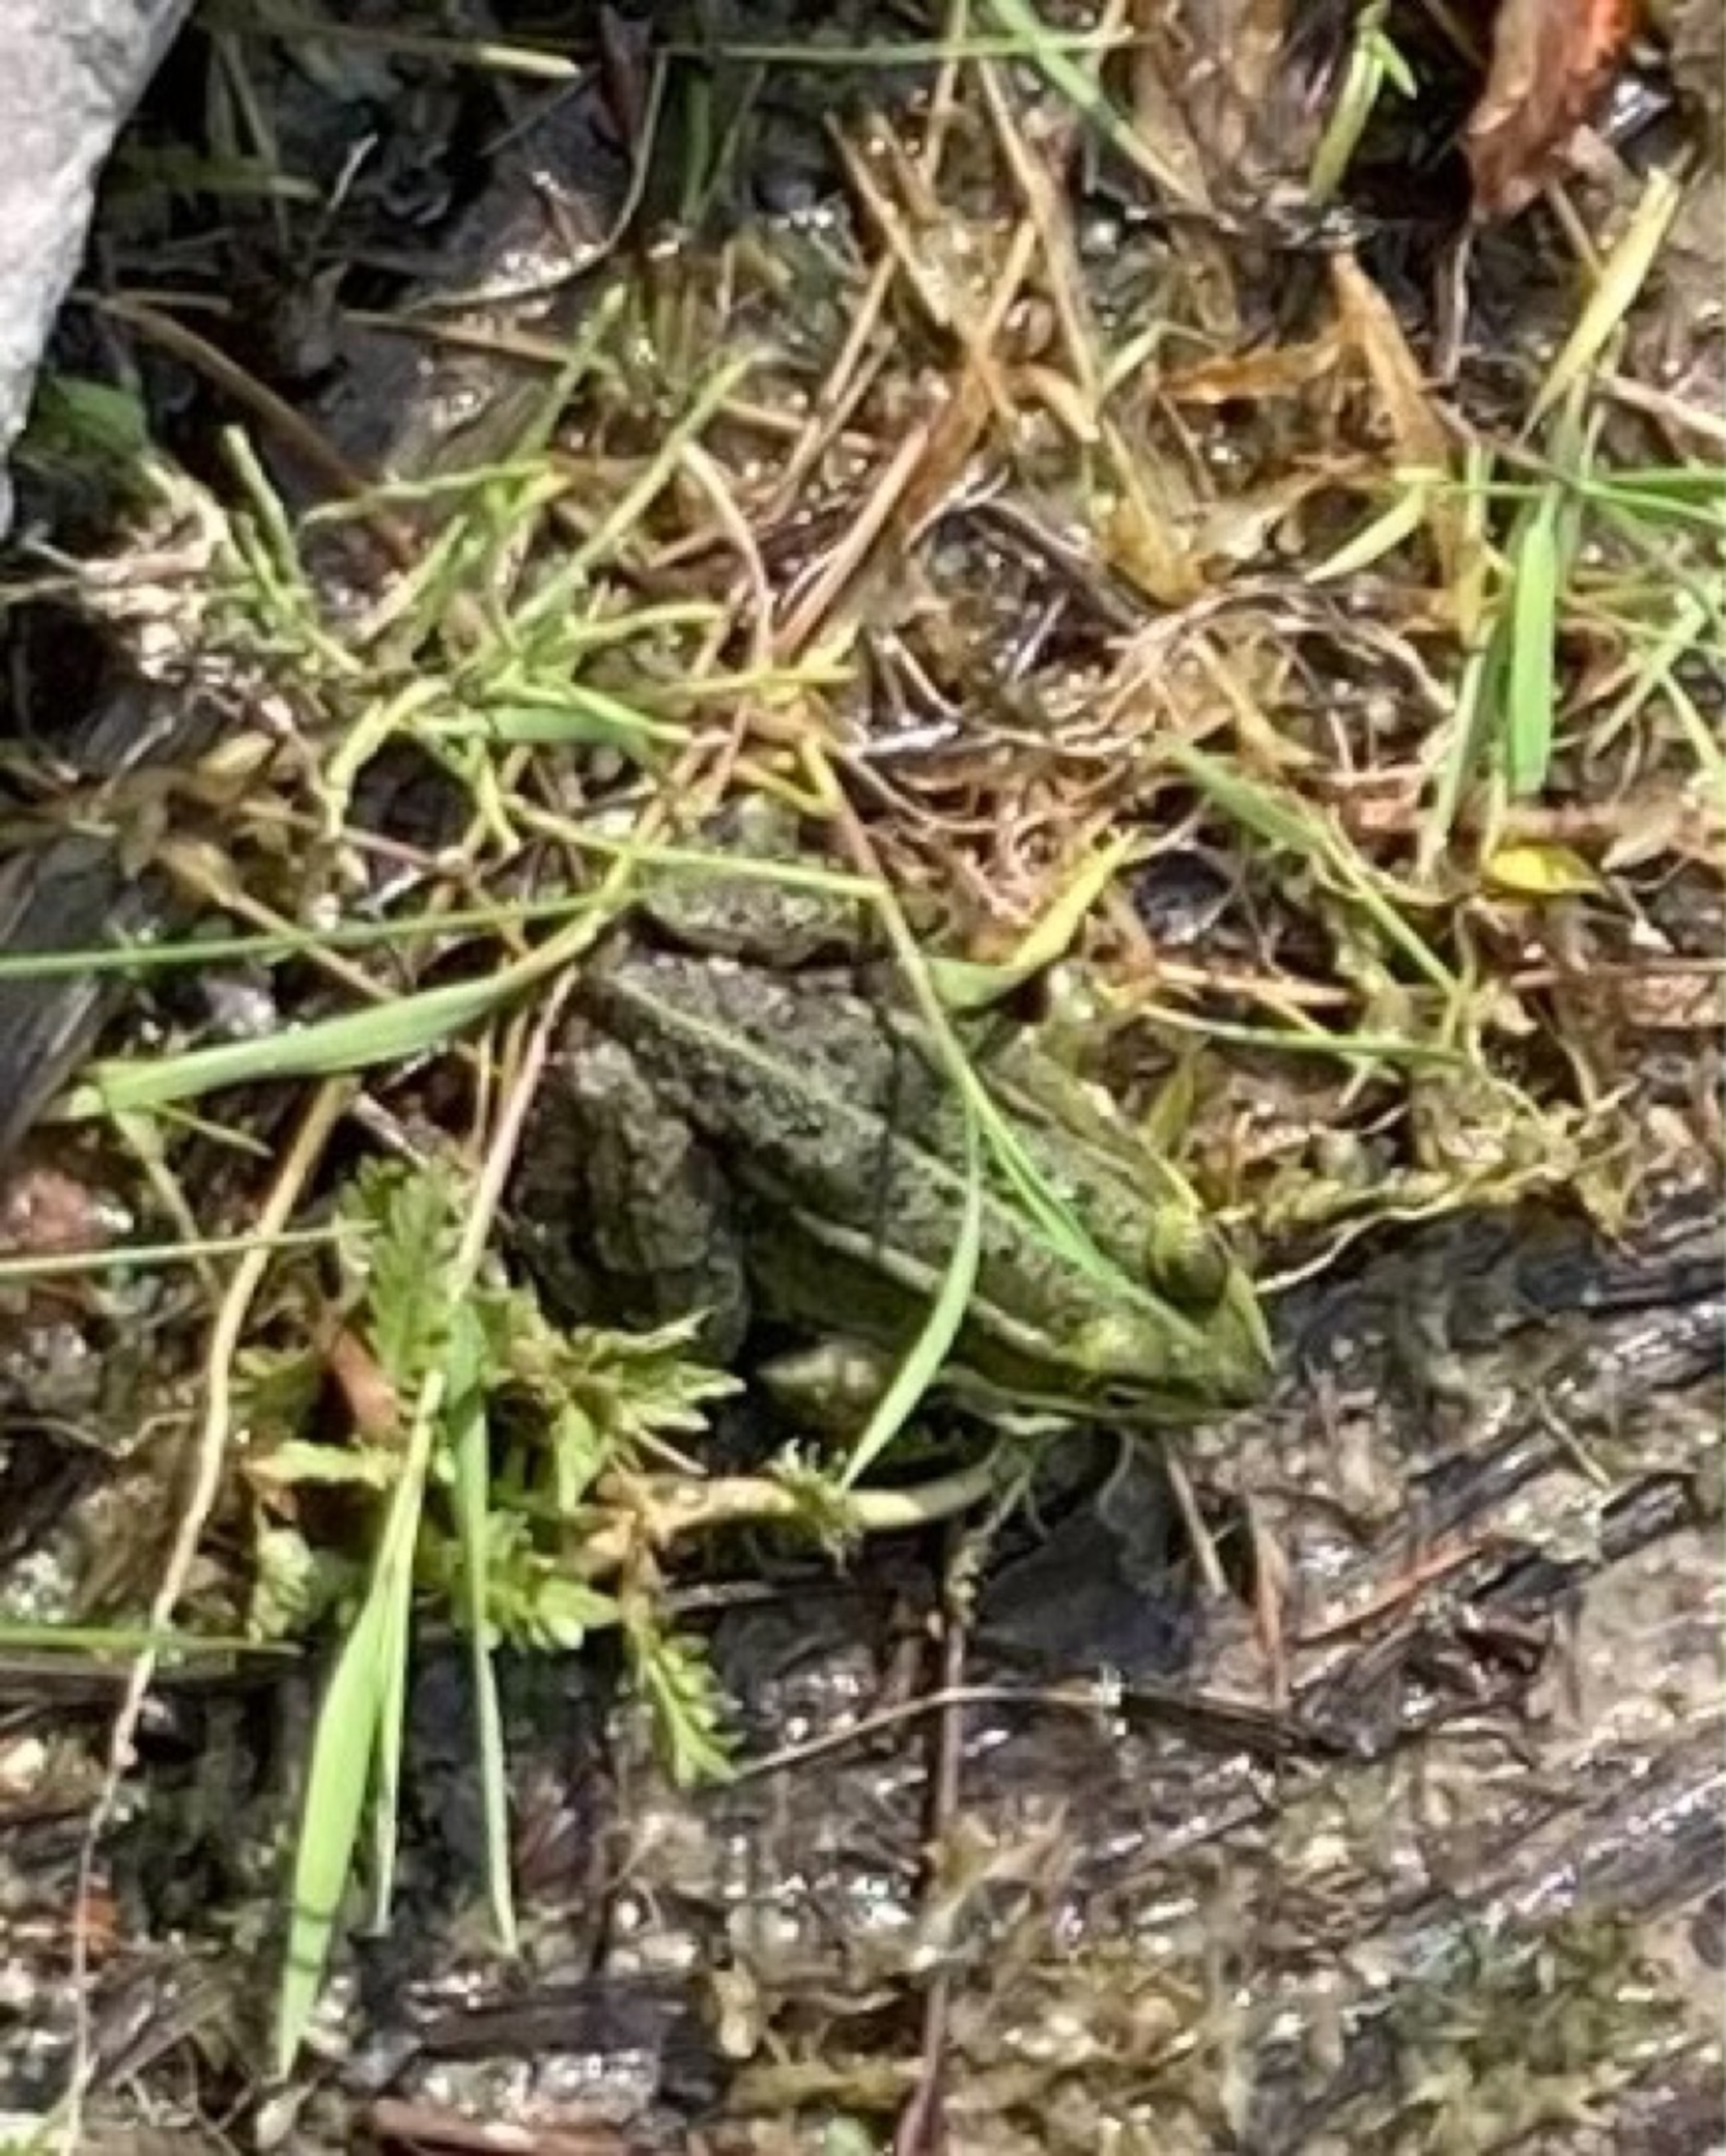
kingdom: Animalia
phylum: Chordata
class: Amphibia
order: Anura
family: Ranidae
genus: Pelophylax
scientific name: Pelophylax lessonae
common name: Grøn frø
